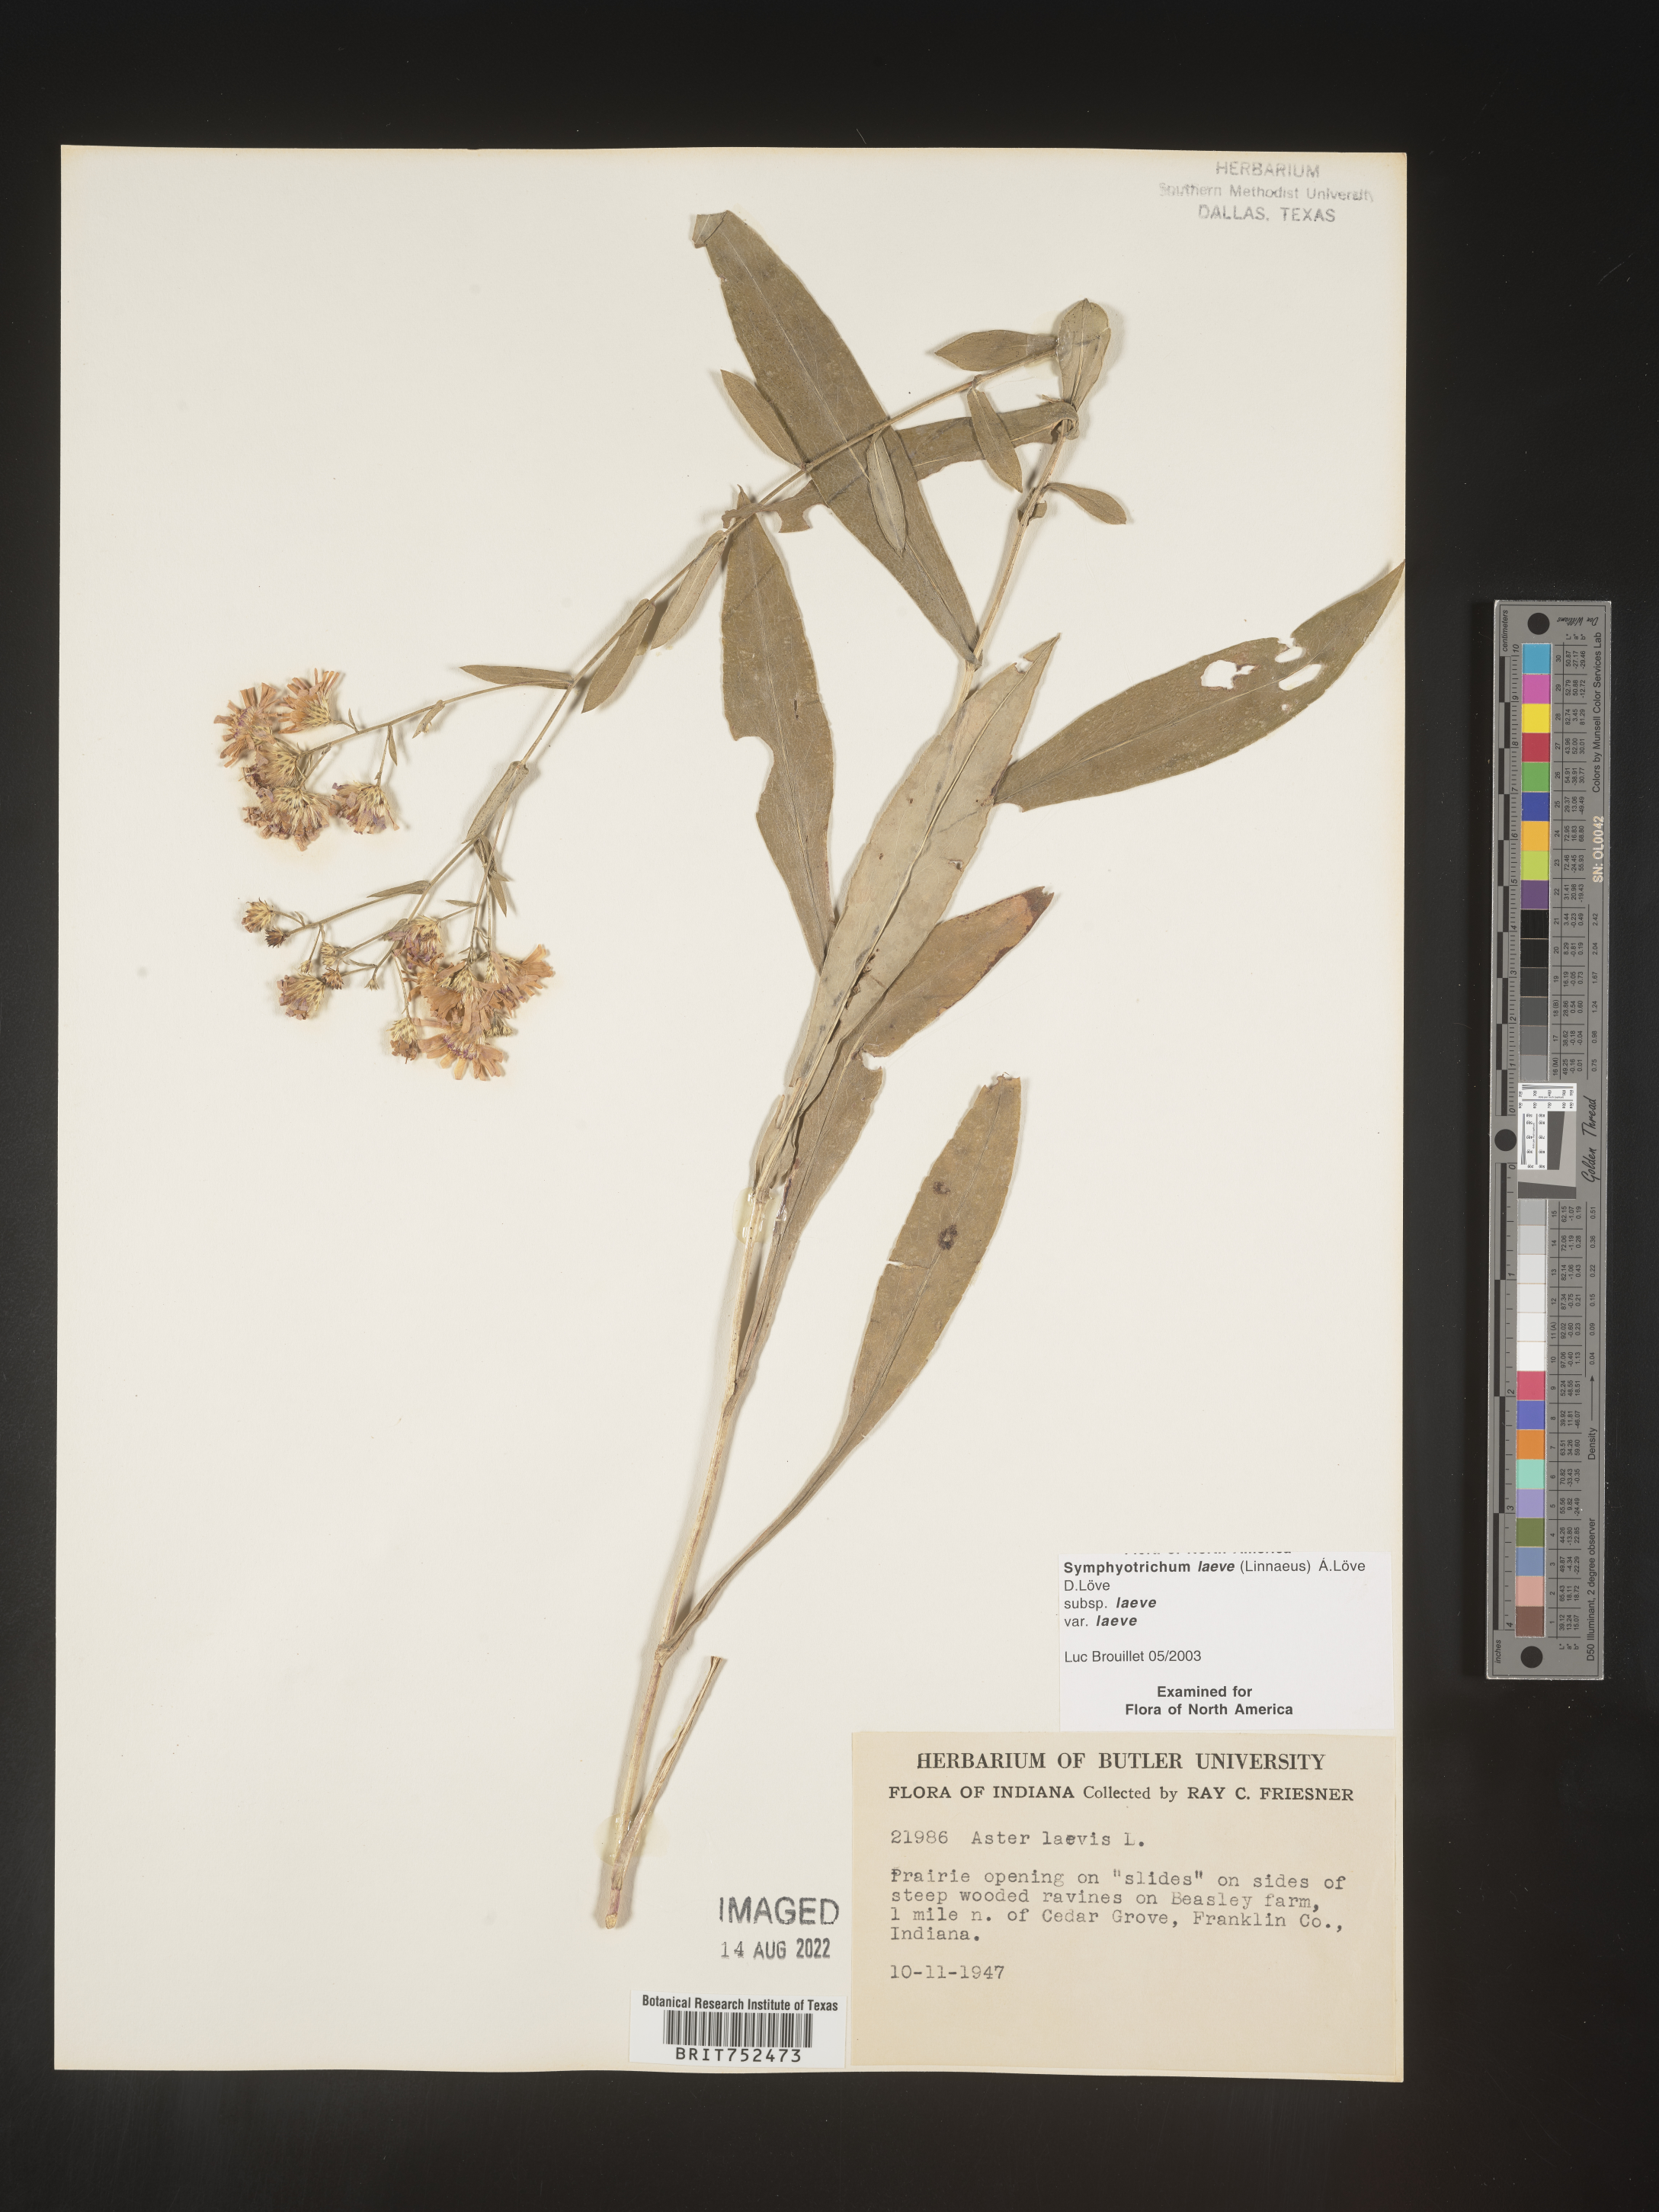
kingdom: Plantae
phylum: Tracheophyta
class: Magnoliopsida
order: Asterales
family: Asteraceae
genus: Symphyotrichum
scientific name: Symphyotrichum laeve
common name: Glaucous aster
